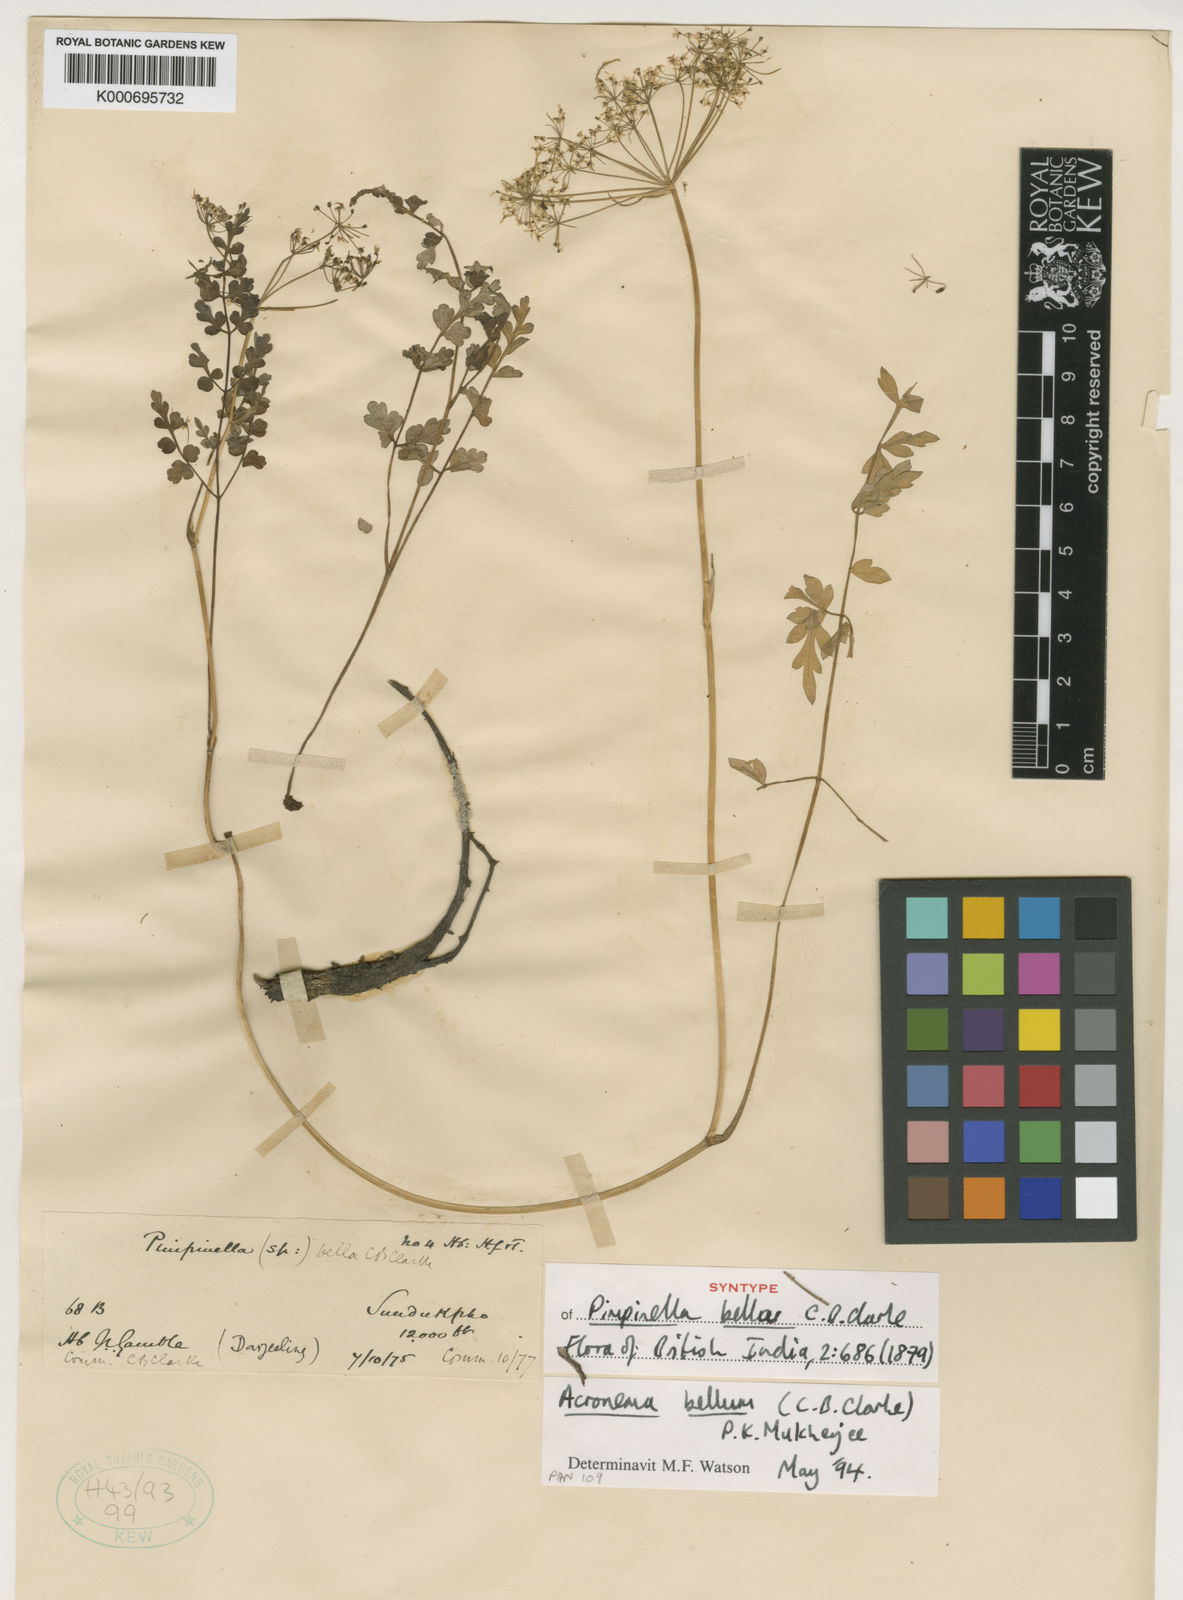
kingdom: Plantae
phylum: Tracheophyta
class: Magnoliopsida
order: Apiales
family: Apiaceae
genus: Sinocarum
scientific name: Sinocarum bellum
